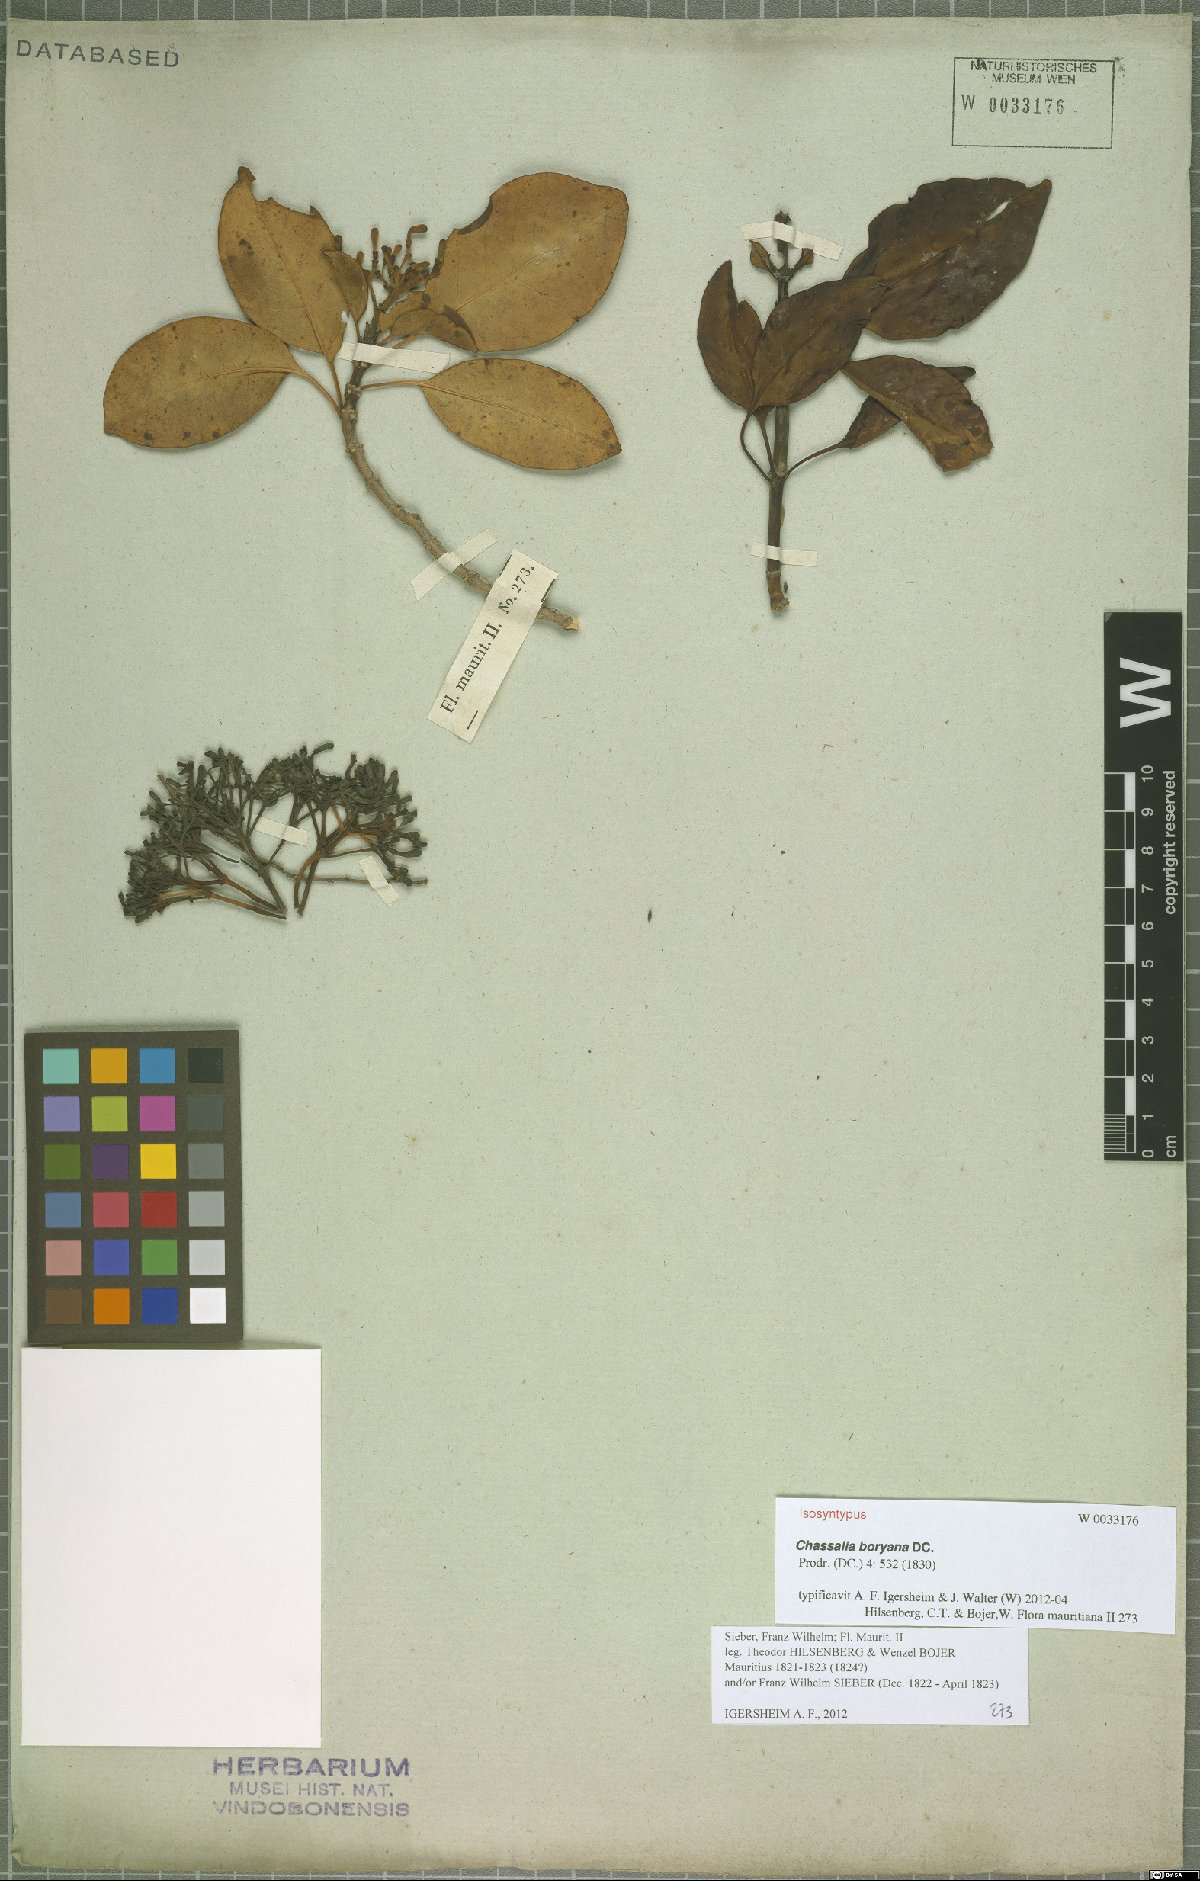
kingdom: Plantae
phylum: Tracheophyta
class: Magnoliopsida
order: Gentianales
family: Rubiaceae
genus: Chassalia
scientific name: Chassalia boryana
